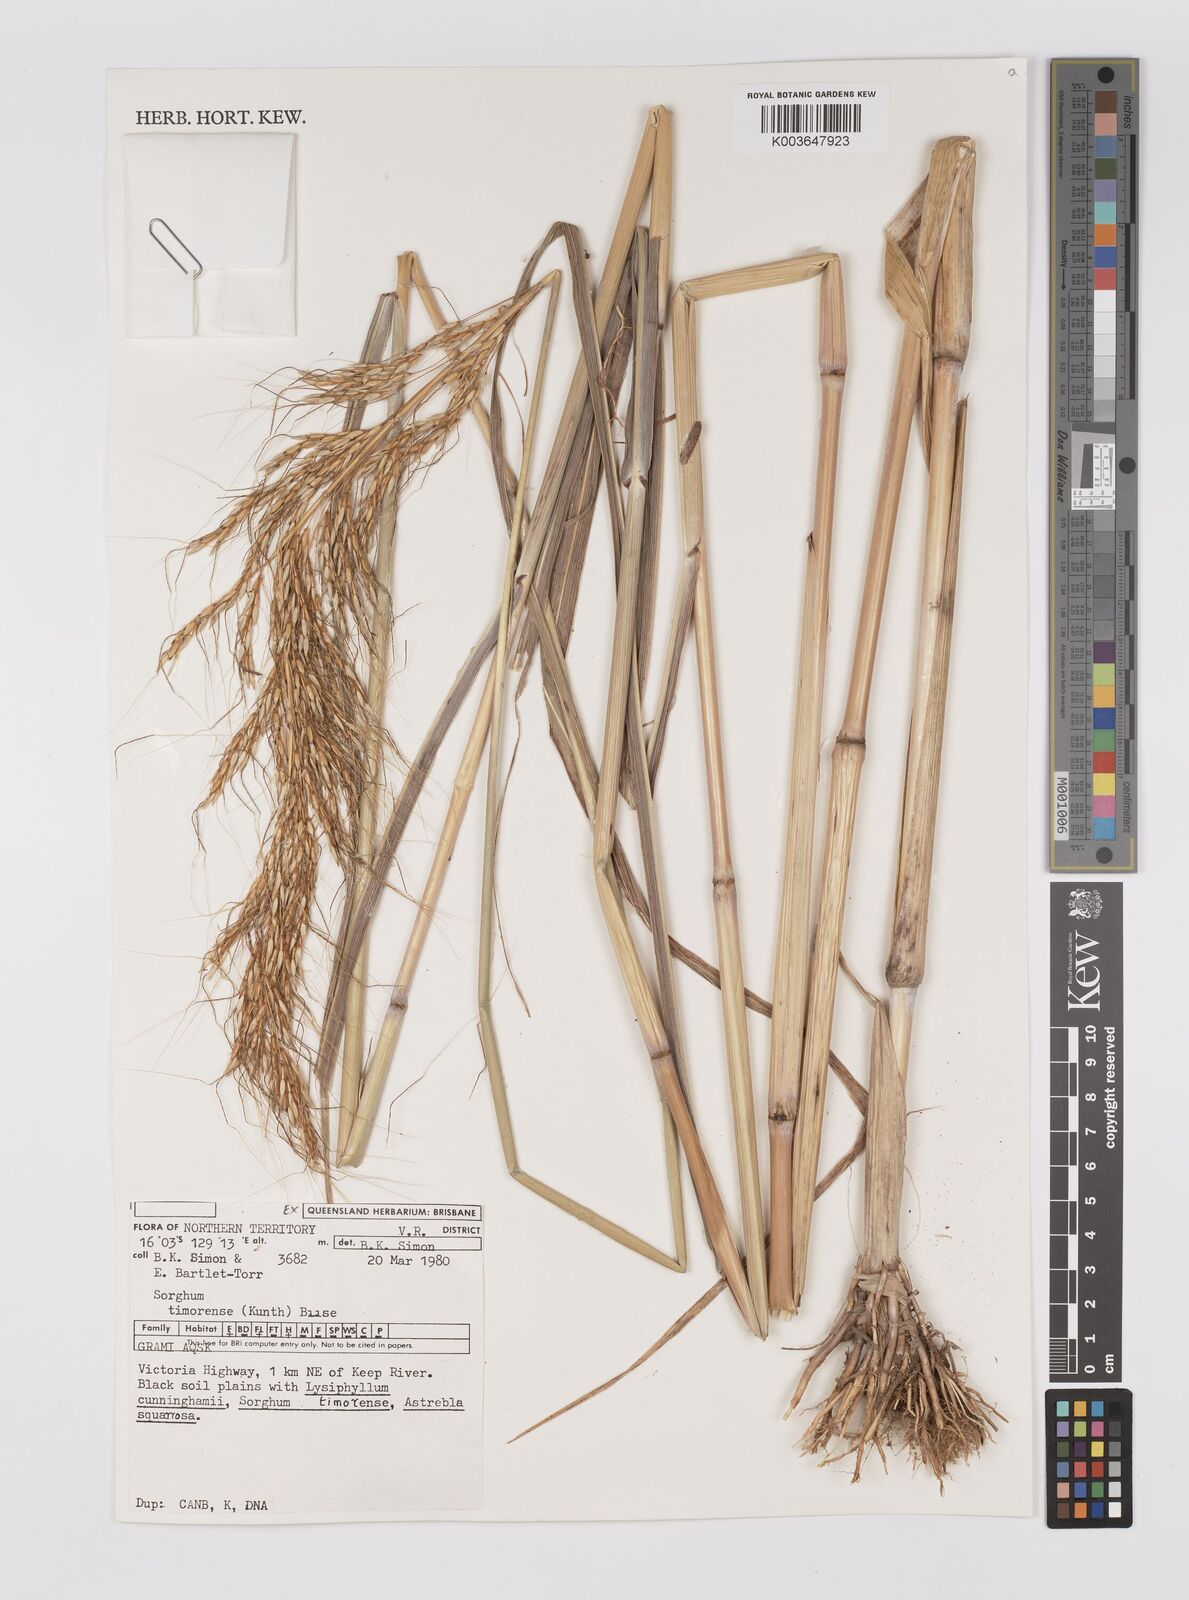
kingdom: Plantae
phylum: Tracheophyta
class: Liliopsida
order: Poales
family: Poaceae
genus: Sarga
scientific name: Sarga timorensis
